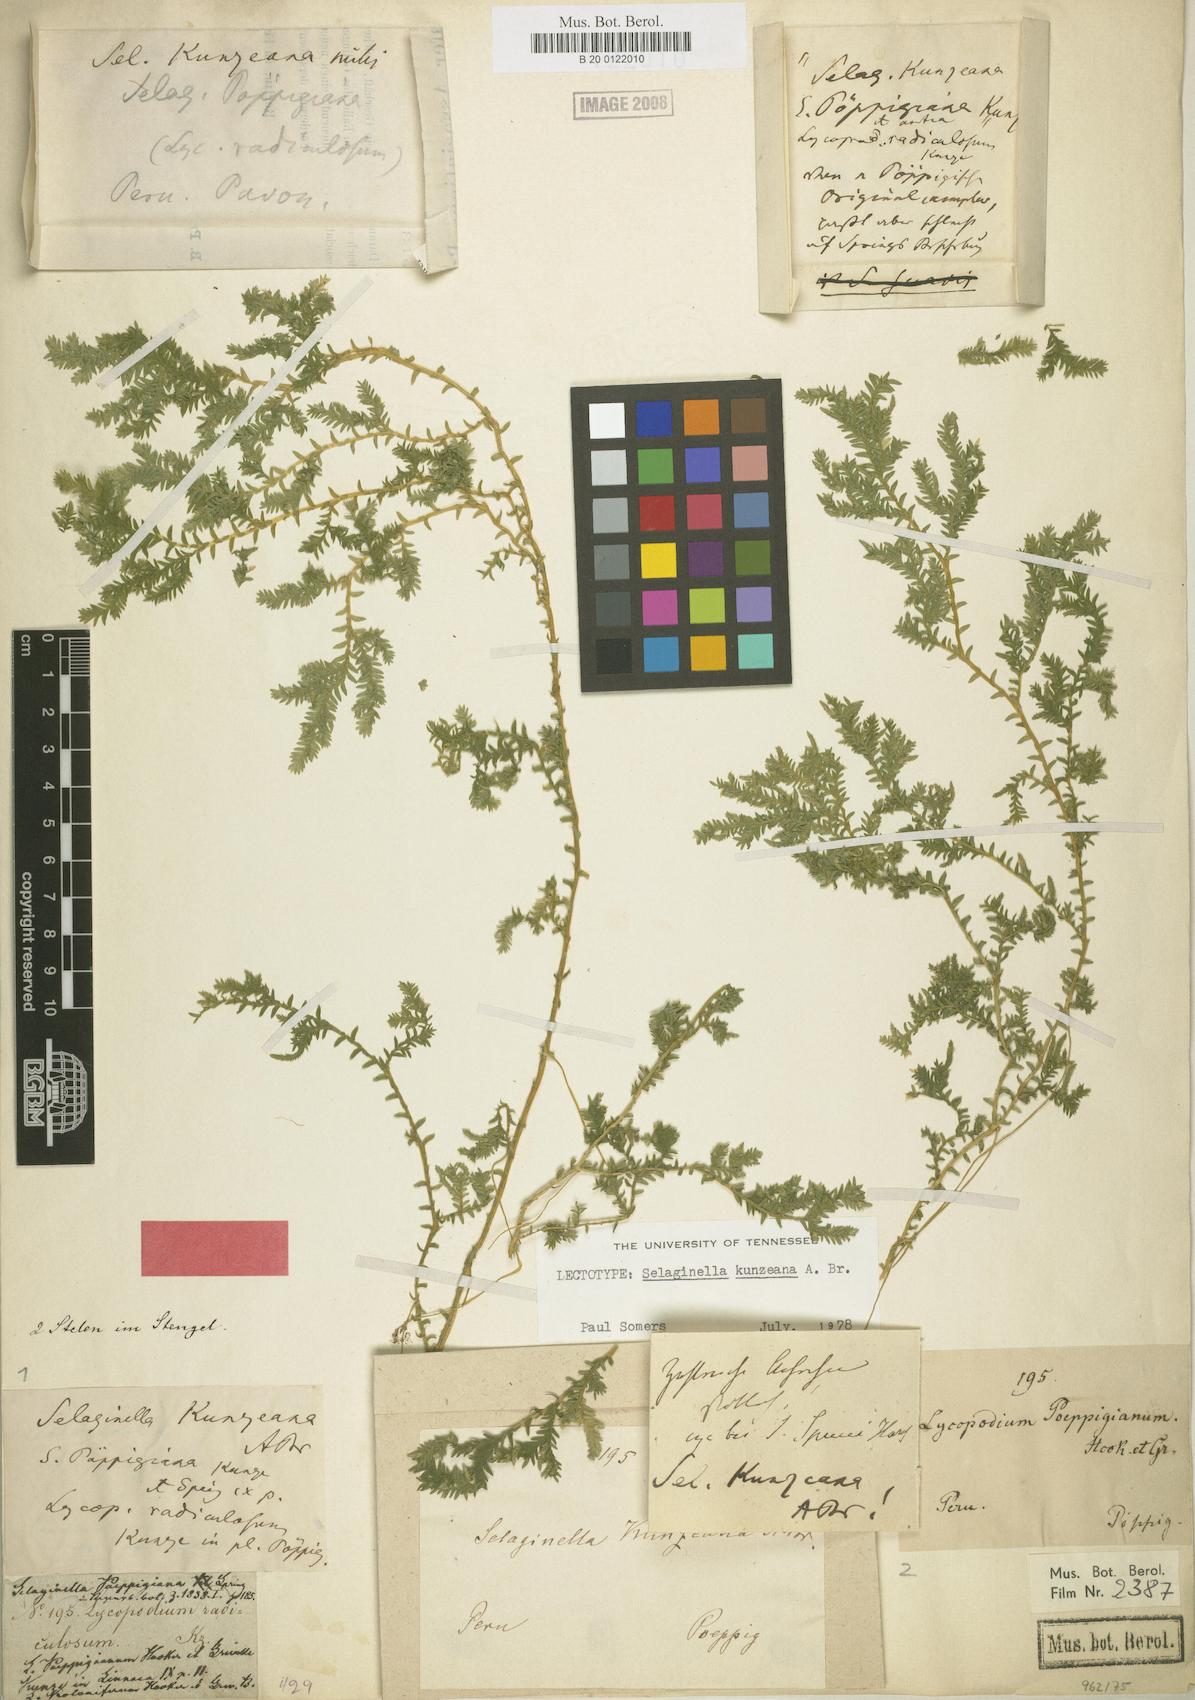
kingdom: Plantae
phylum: Tracheophyta
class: Lycopodiopsida
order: Selaginellales
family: Selaginellaceae
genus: Selaginella
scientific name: Selaginella kunzeana
